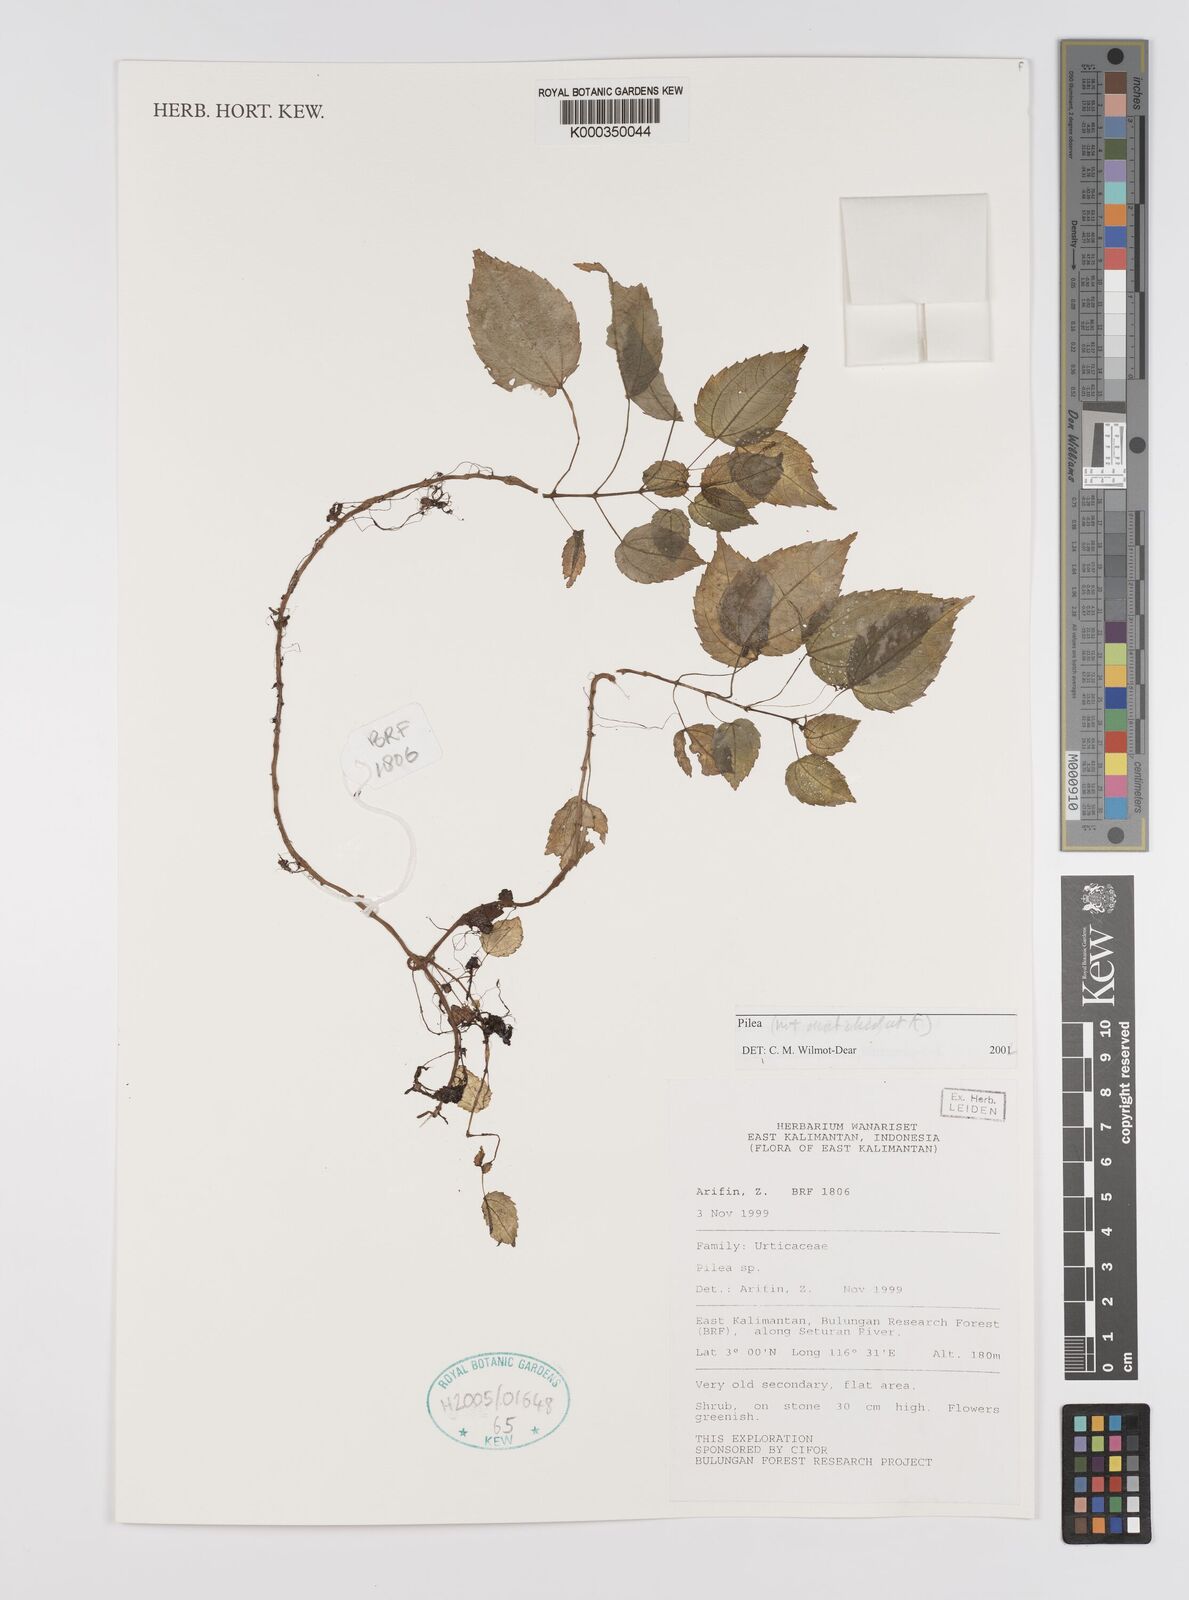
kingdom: Plantae
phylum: Tracheophyta
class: Magnoliopsida
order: Rosales
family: Urticaceae
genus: Pilea
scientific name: Pilea
